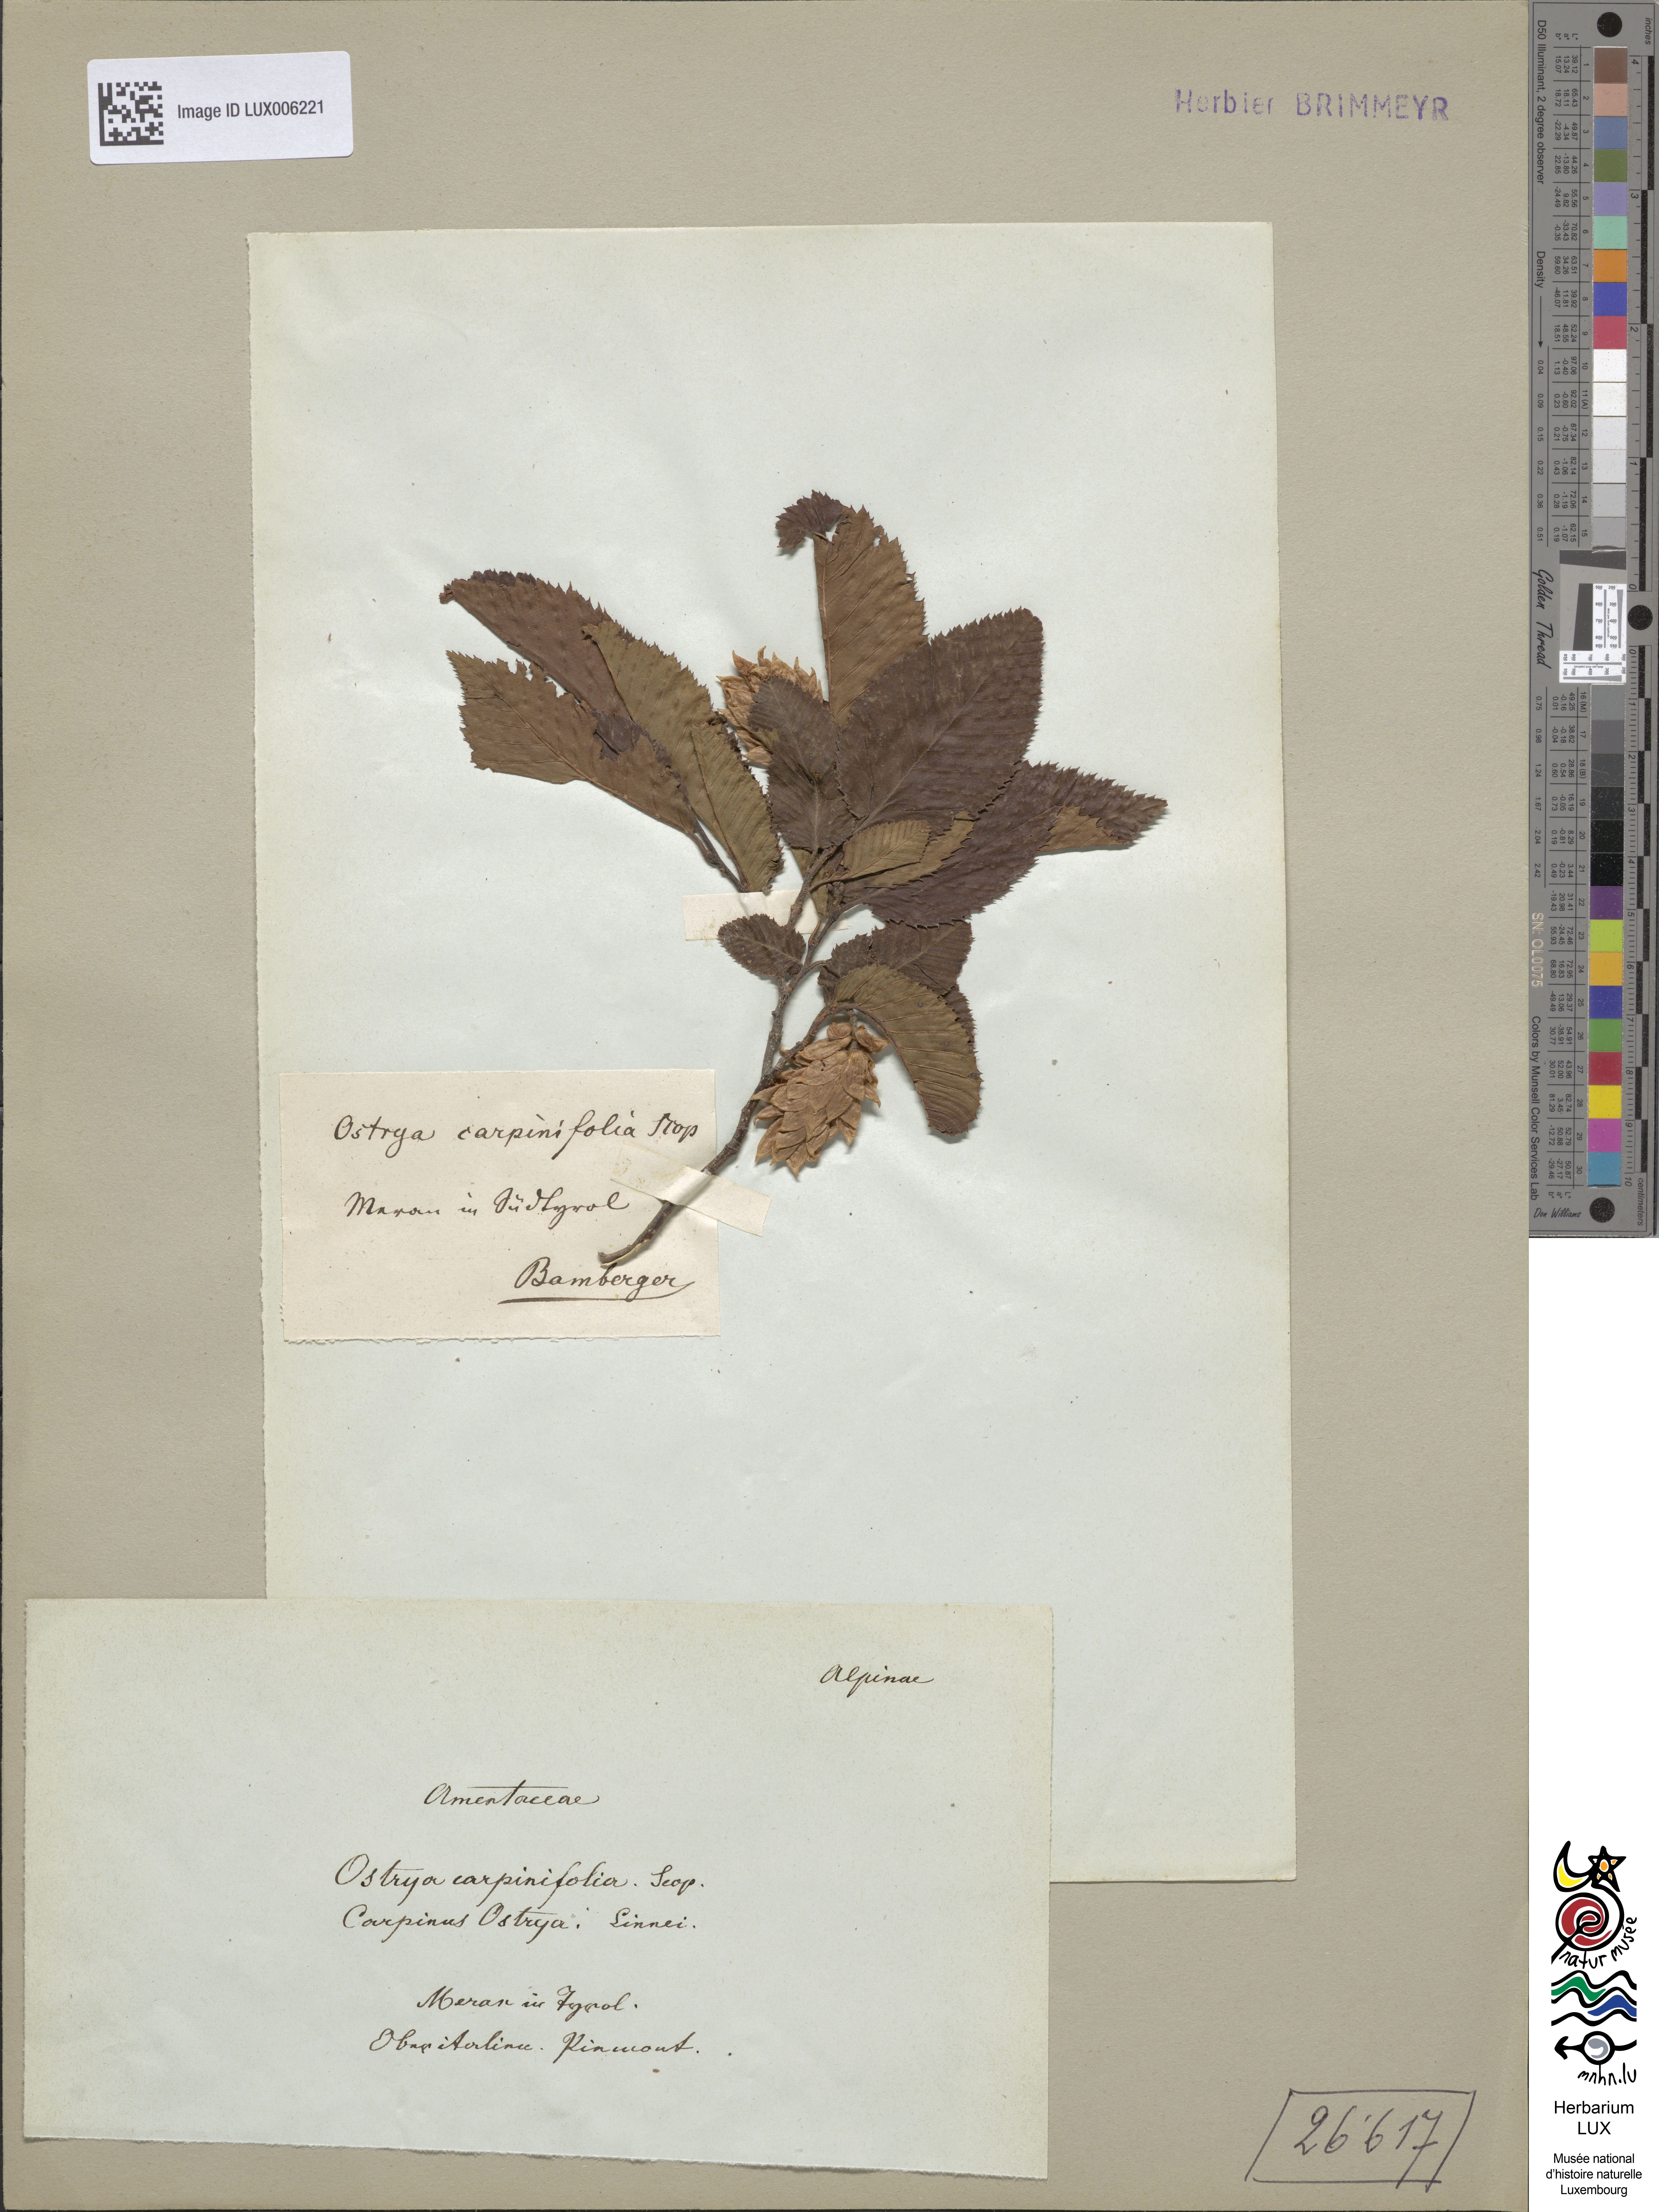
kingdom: Plantae
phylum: Tracheophyta
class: Magnoliopsida
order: Fagales
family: Betulaceae
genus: Ostrya
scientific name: Ostrya carpinifolia
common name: European hop-hornbeam
